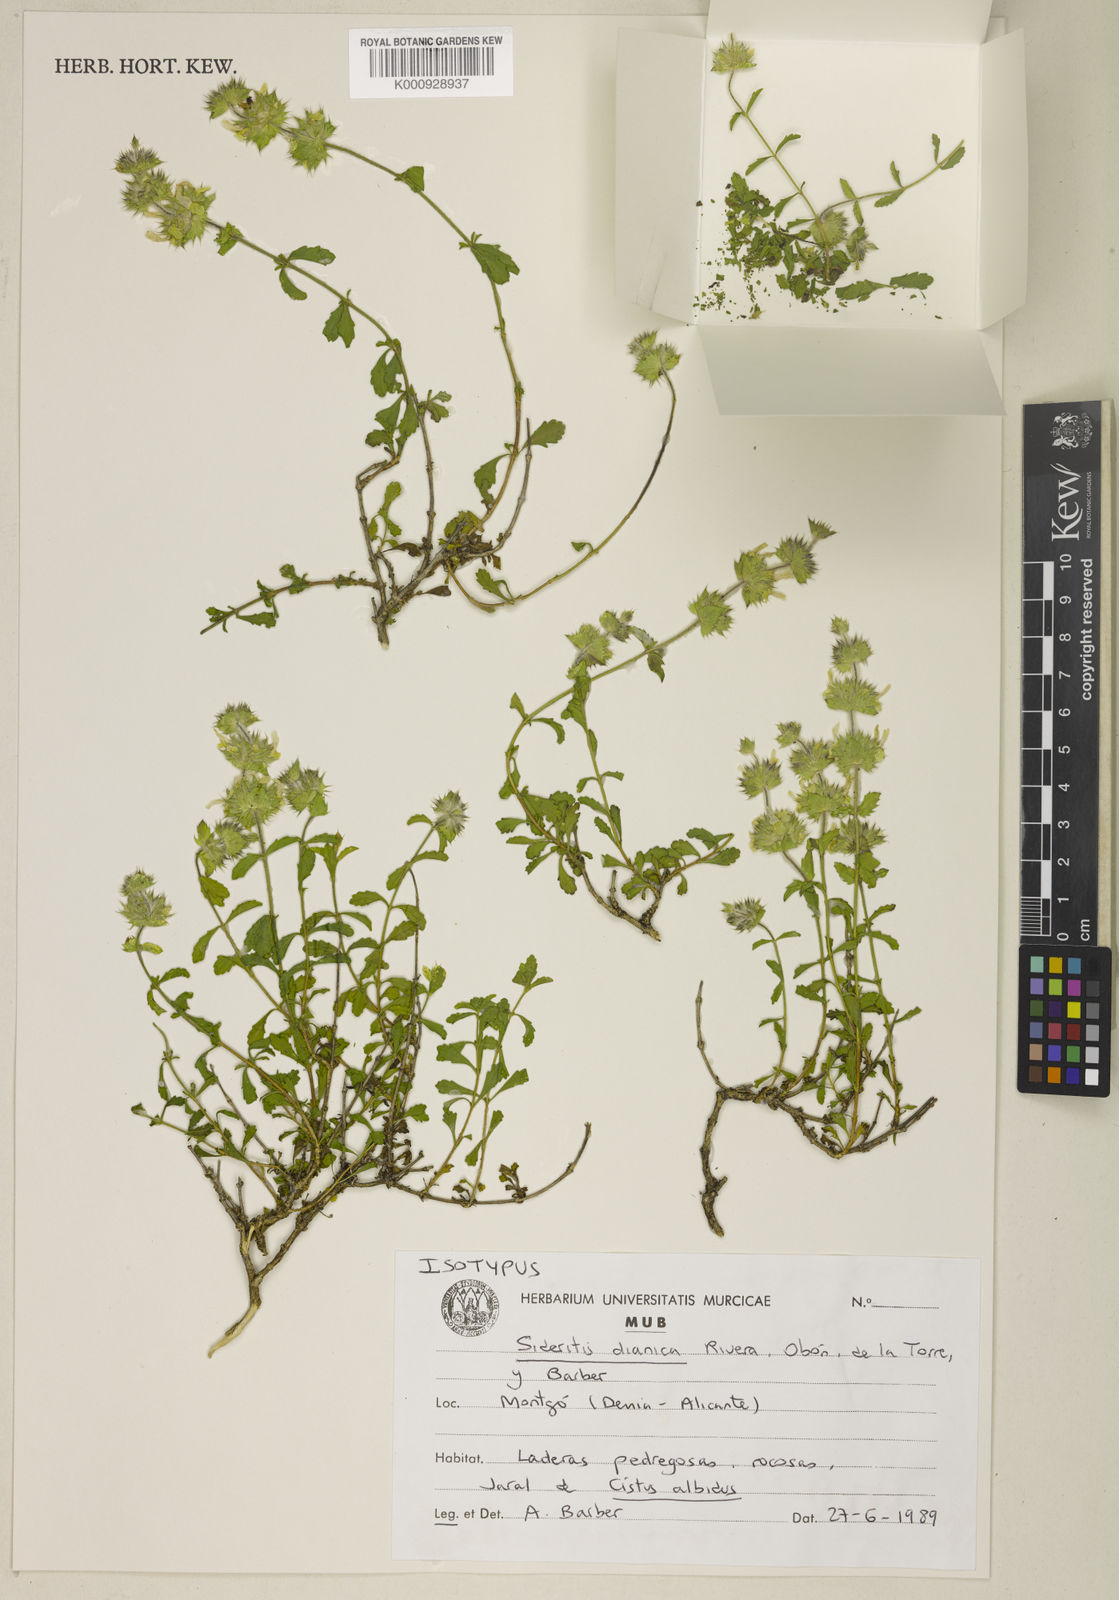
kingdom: Plantae
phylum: Tracheophyta
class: Magnoliopsida
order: Lamiales
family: Lamiaceae
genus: Sideritis
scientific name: Sideritis
